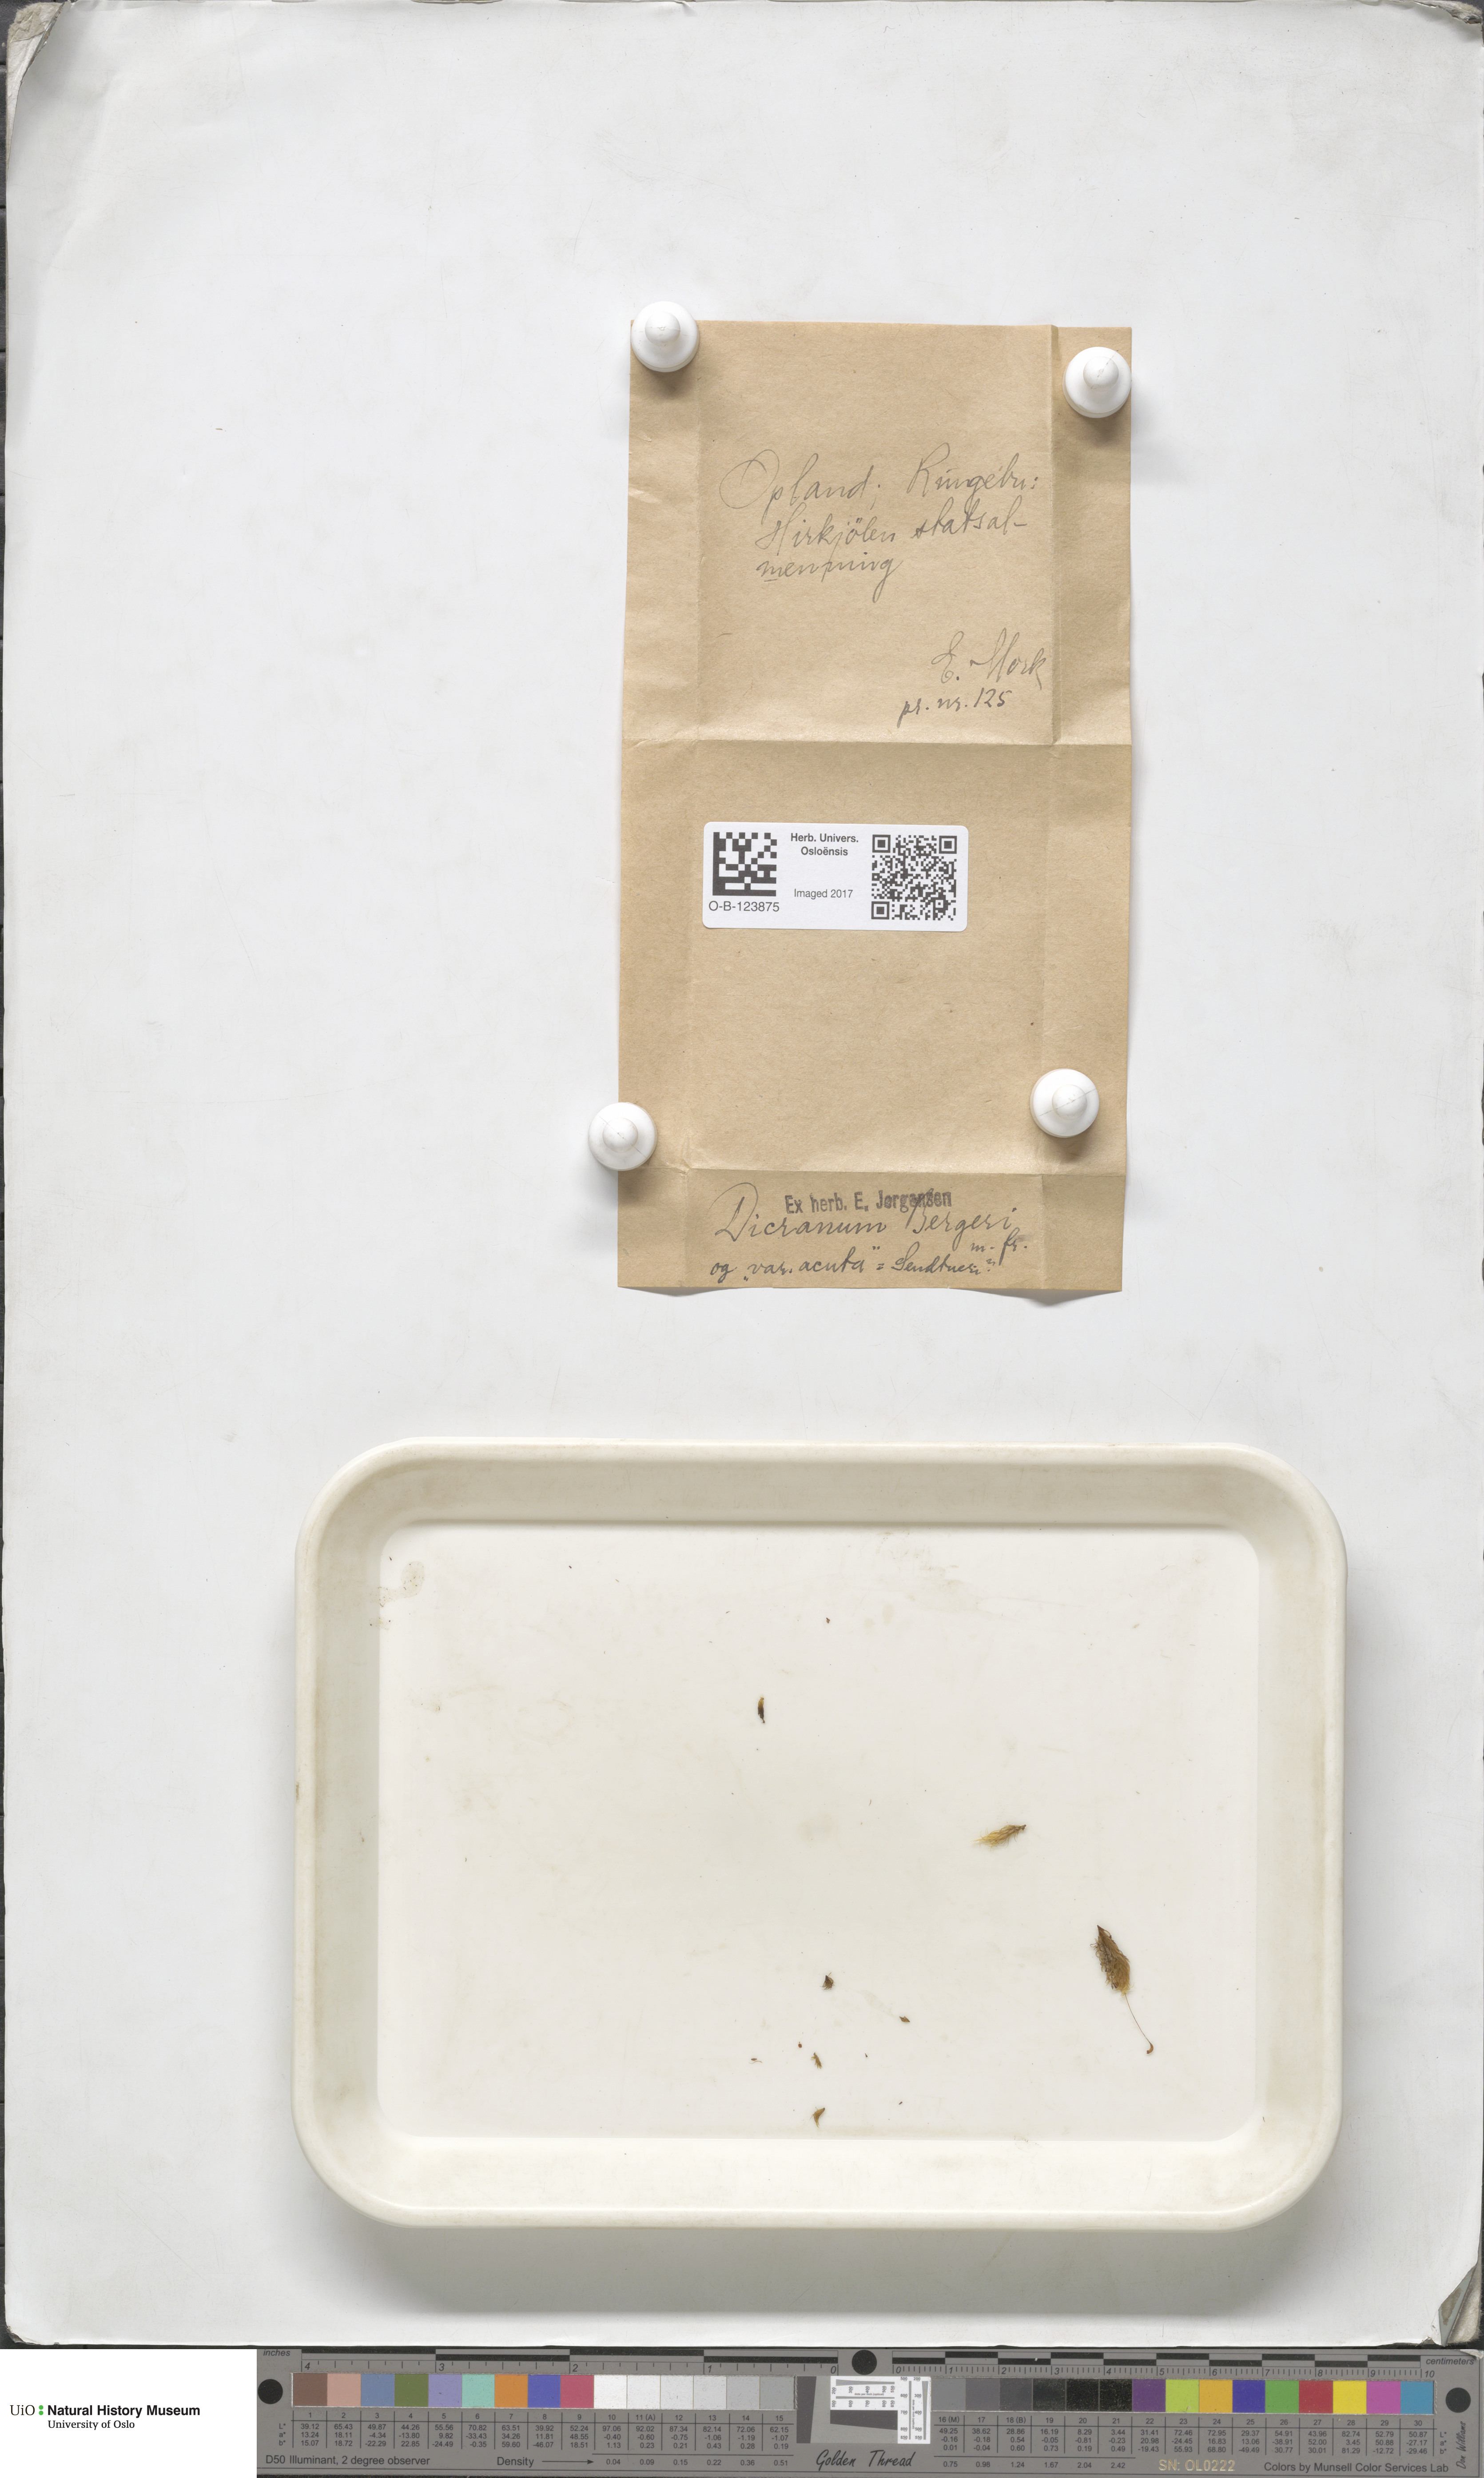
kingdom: Plantae
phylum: Bryophyta
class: Bryopsida
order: Dicranales
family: Dicranaceae
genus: Dicranum
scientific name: Dicranum undulatum
